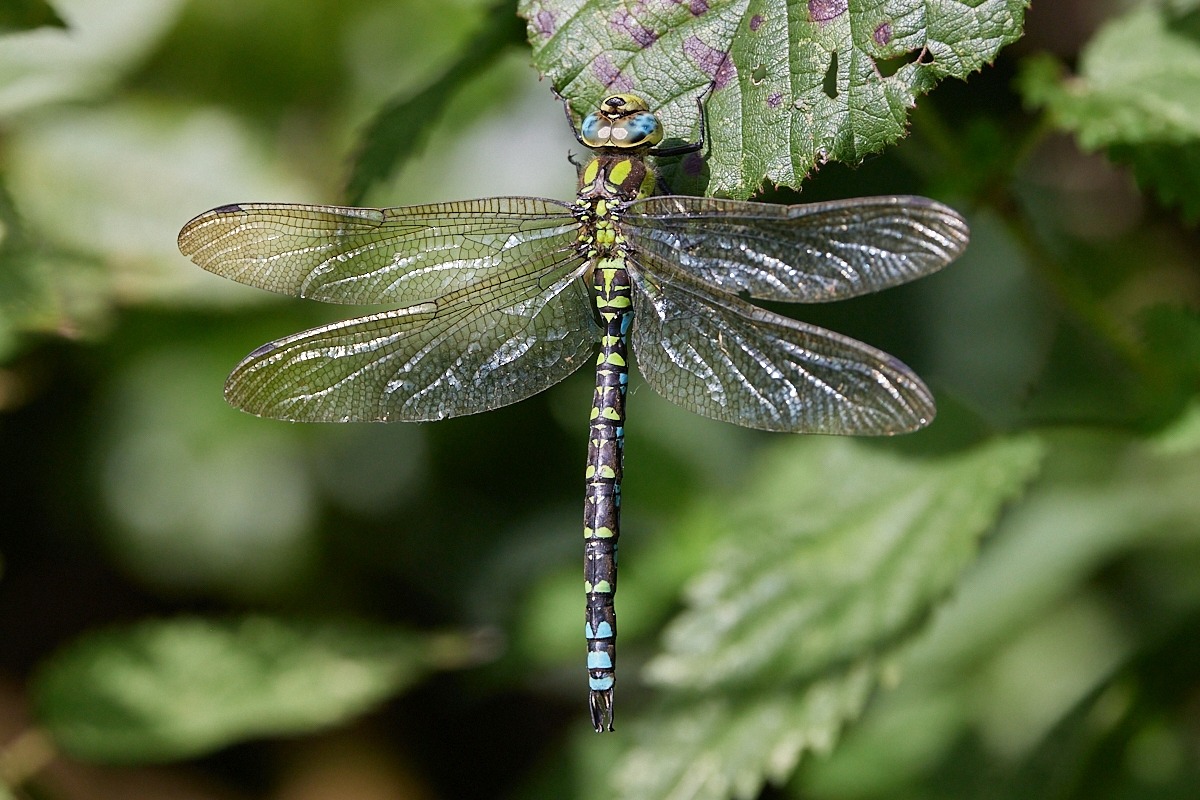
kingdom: Animalia
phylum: Arthropoda
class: Insecta
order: Odonata
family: Aeshnidae
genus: Aeshna
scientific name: Aeshna cyanea
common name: Blå mosaikguldsmed
